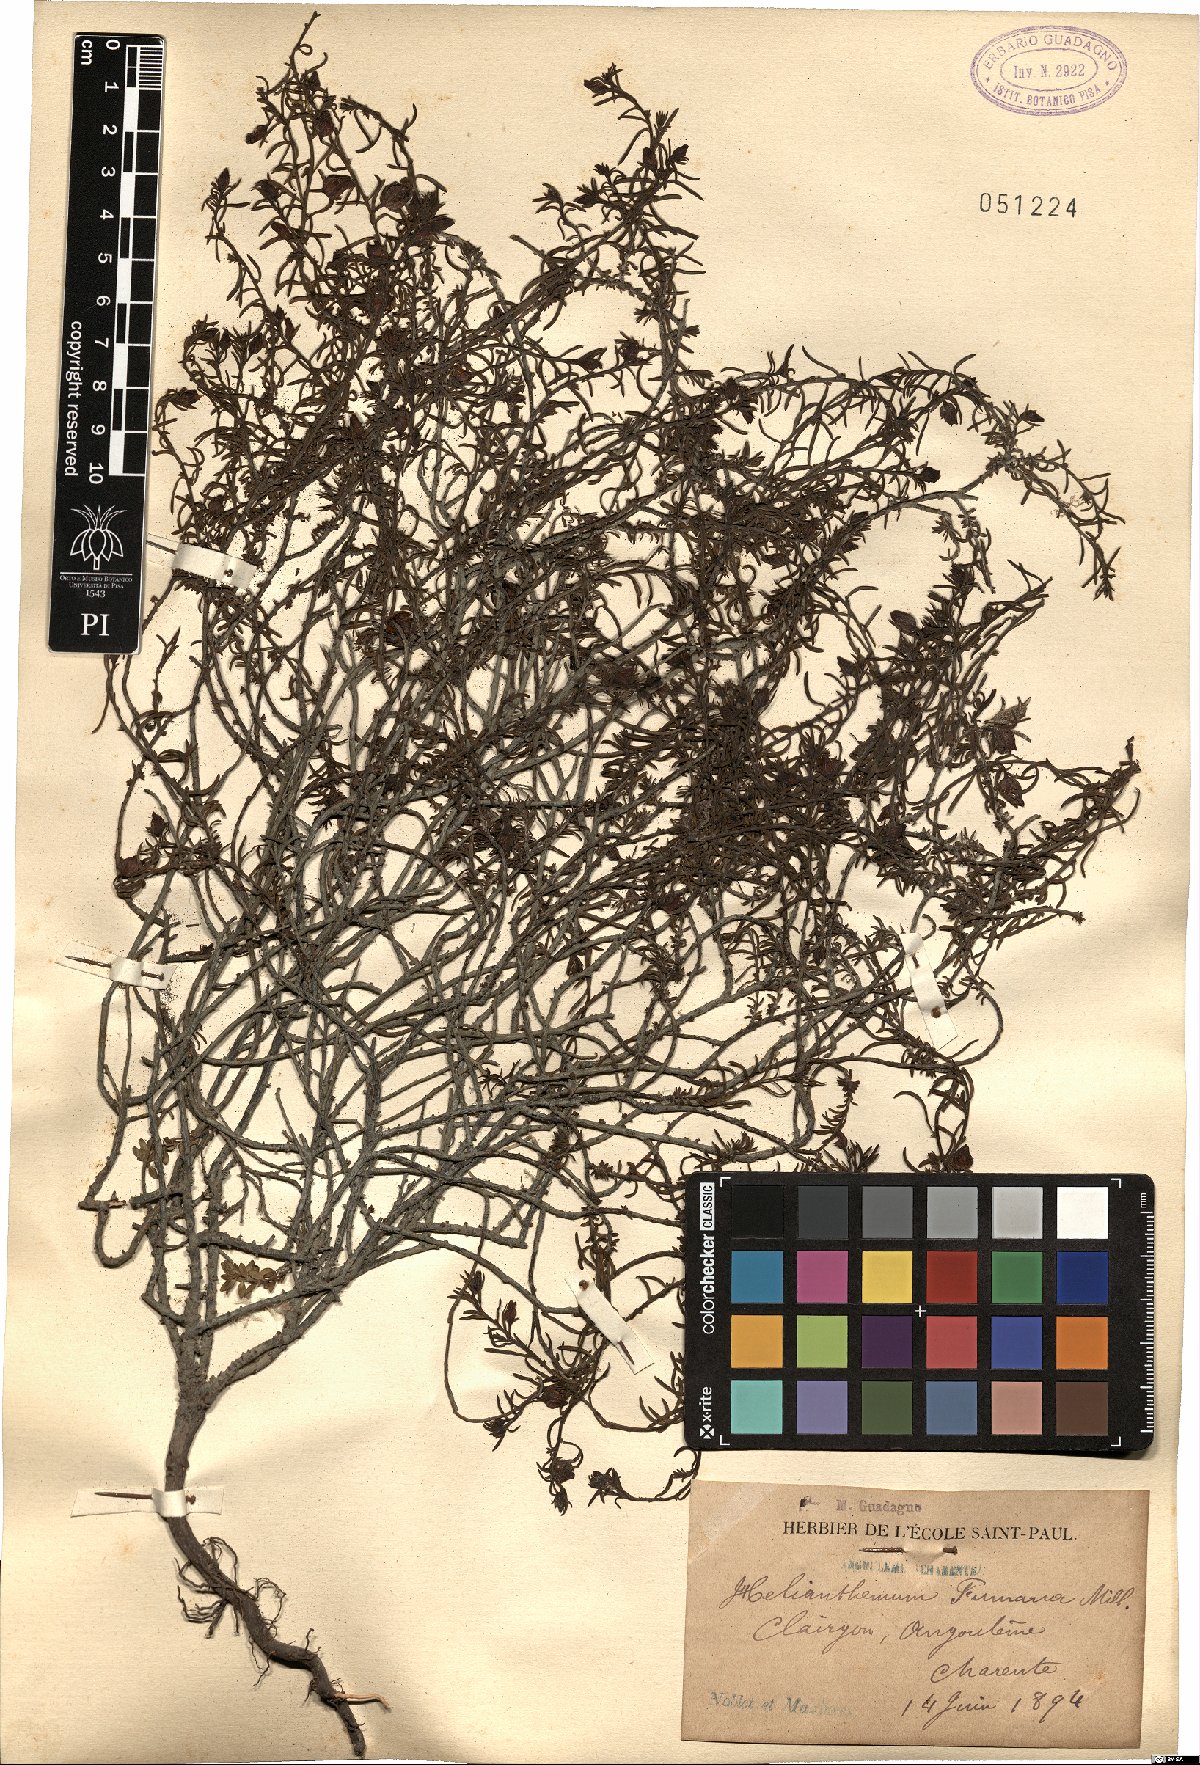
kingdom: Plantae
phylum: Tracheophyta
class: Magnoliopsida
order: Malvales
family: Cistaceae
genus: Fumana
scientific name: Fumana procumbens
